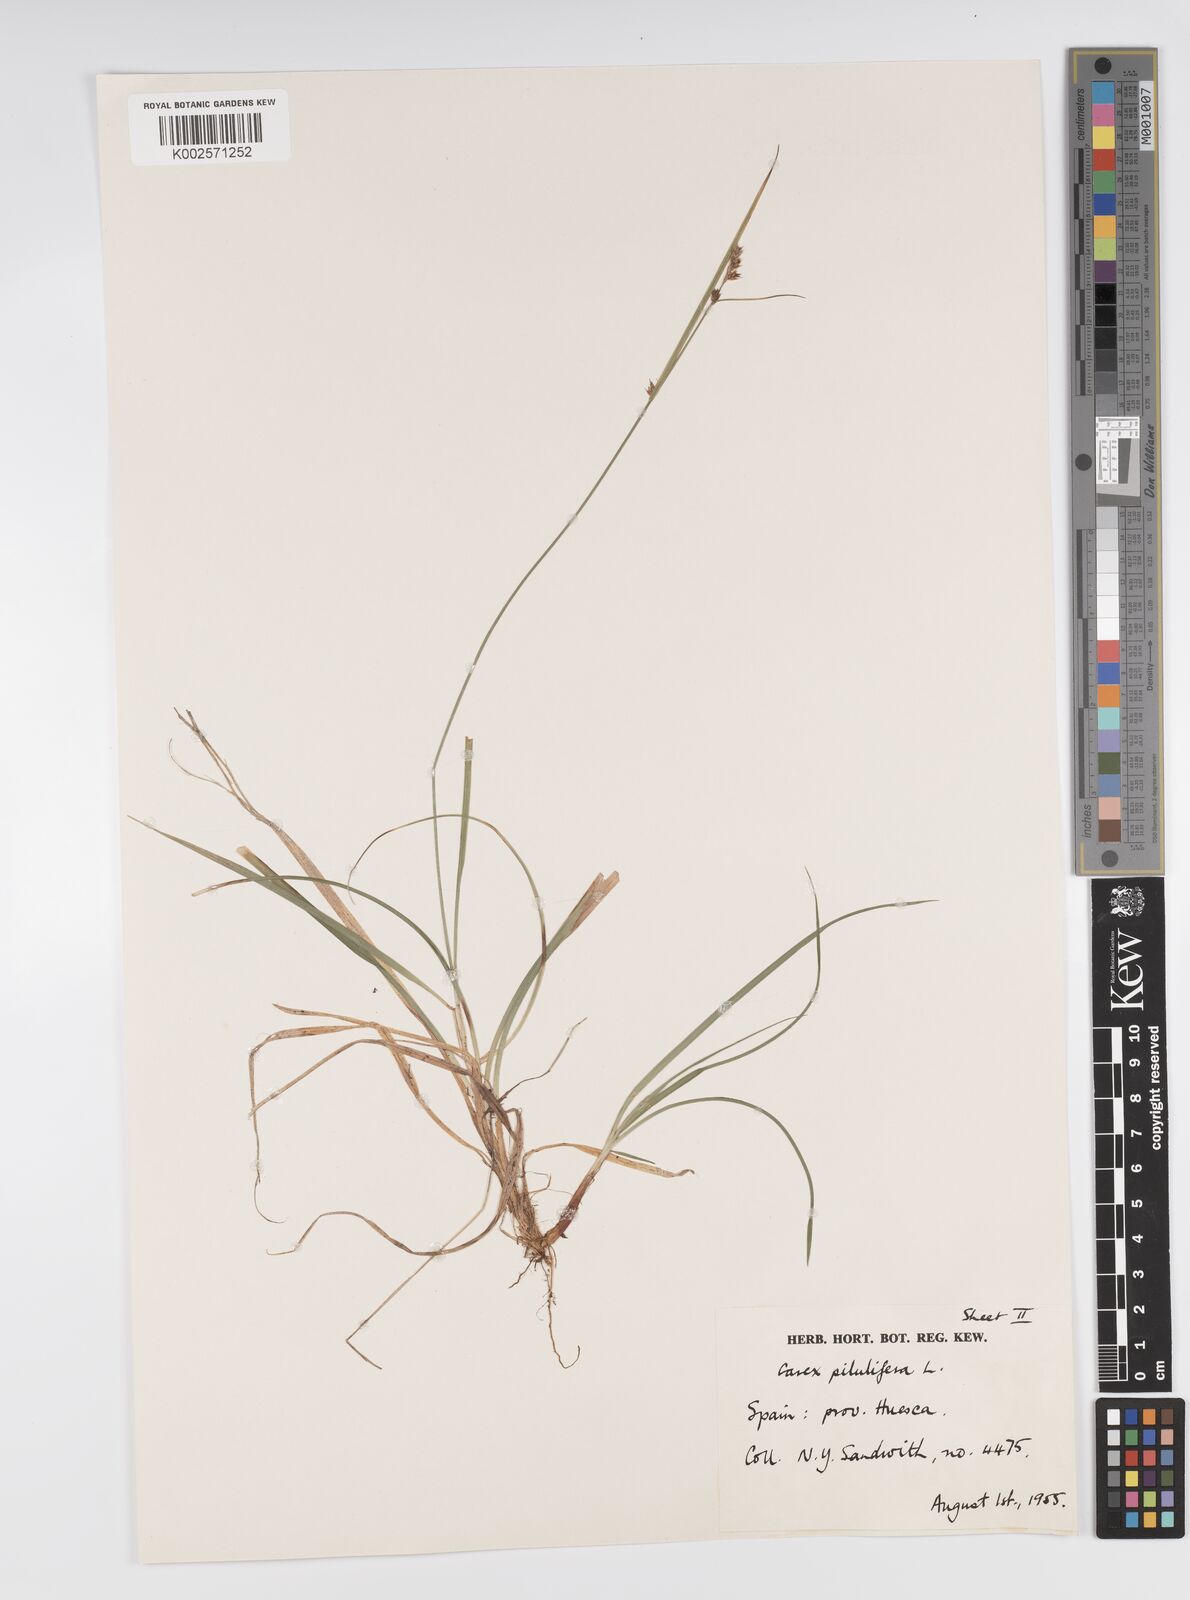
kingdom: Plantae
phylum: Tracheophyta
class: Liliopsida
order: Poales
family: Cyperaceae
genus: Carex
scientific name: Carex pilulifera
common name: Pill sedge
